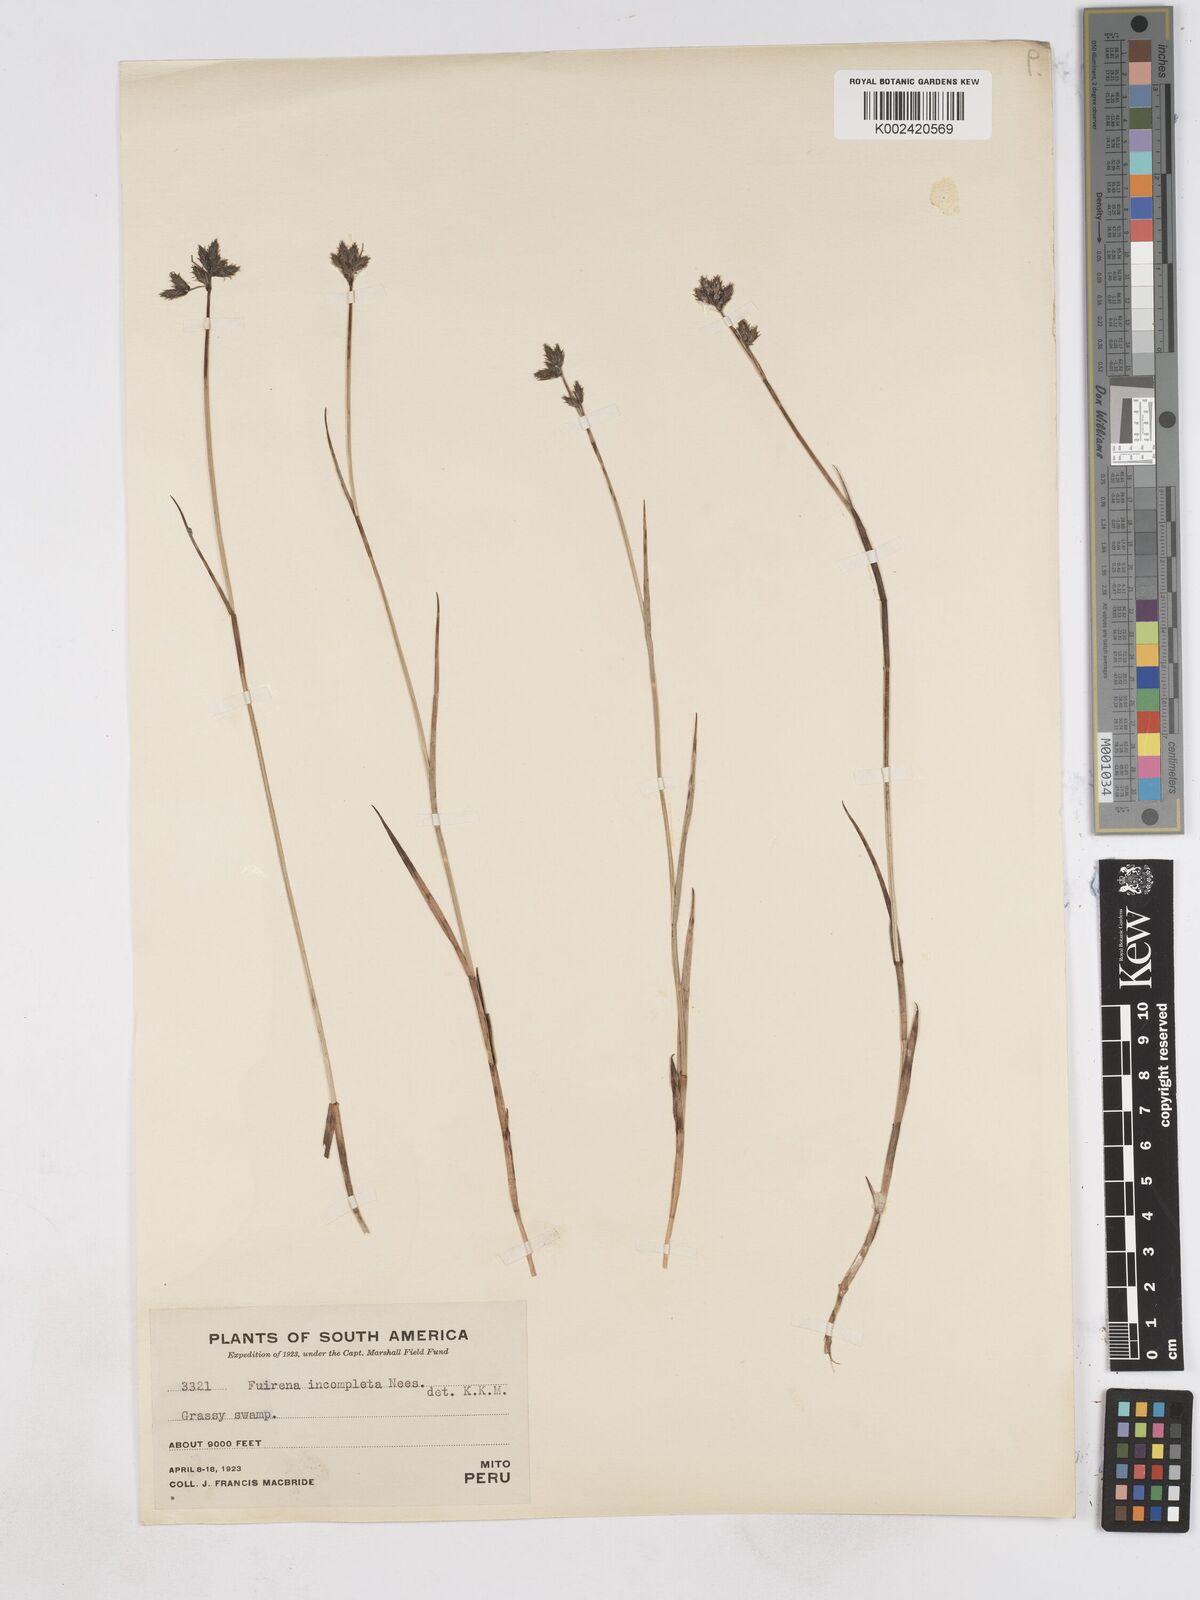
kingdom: Plantae
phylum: Tracheophyta
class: Liliopsida
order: Poales
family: Cyperaceae
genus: Fuirena
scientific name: Fuirena incompleta
